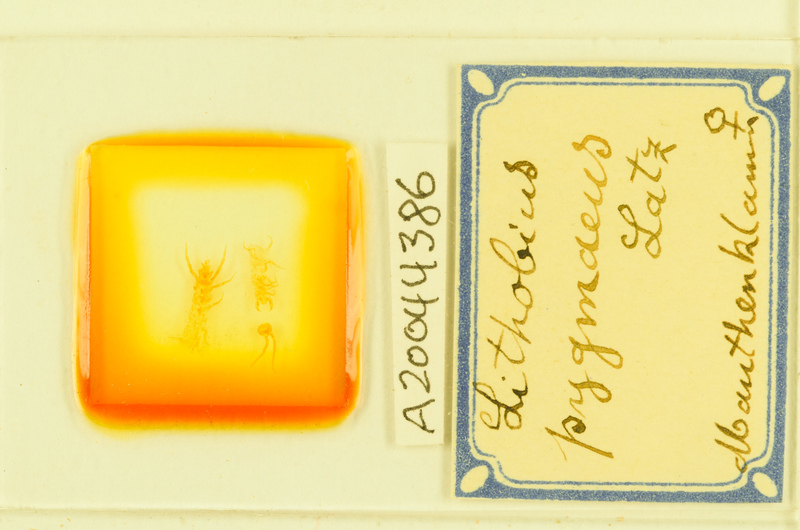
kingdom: Animalia
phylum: Arthropoda
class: Chilopoda
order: Lithobiomorpha
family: Lithobiidae
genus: Lithobius
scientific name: Lithobius pygmaeus
